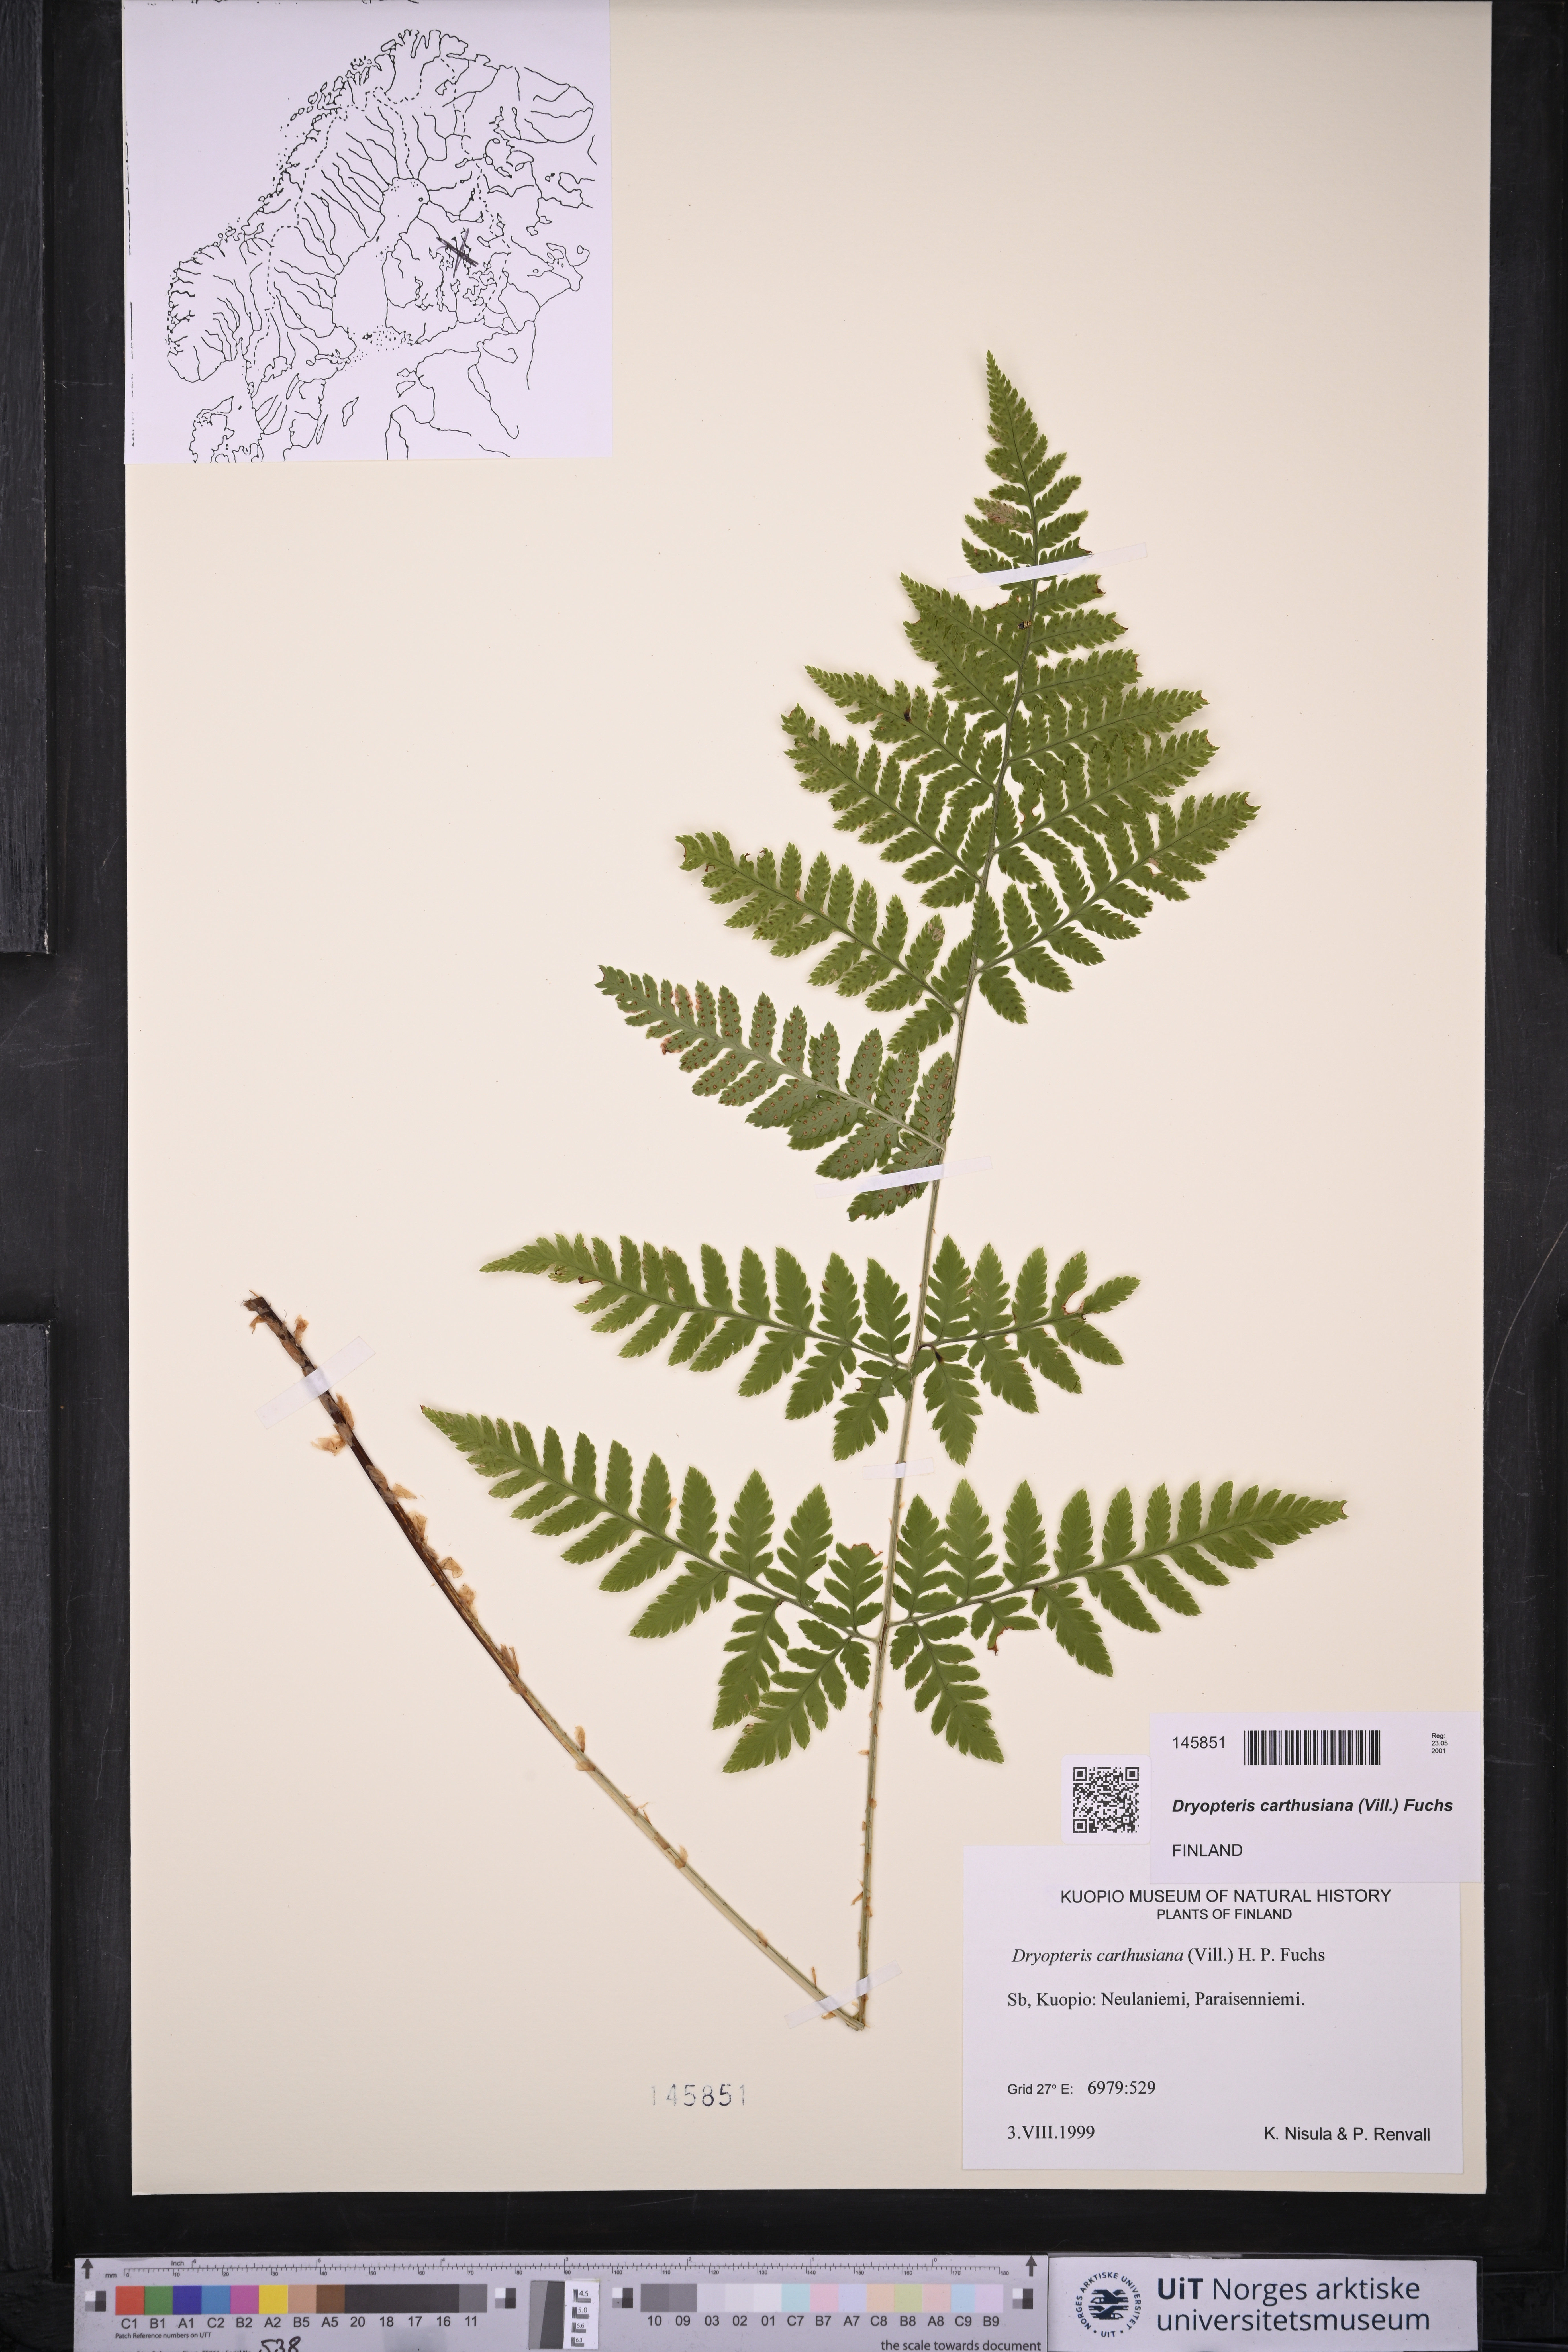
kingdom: Plantae
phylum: Tracheophyta
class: Polypodiopsida
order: Polypodiales
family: Dryopteridaceae
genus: Dryopteris
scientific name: Dryopteris carthusiana
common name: Narrow buckler-fern
